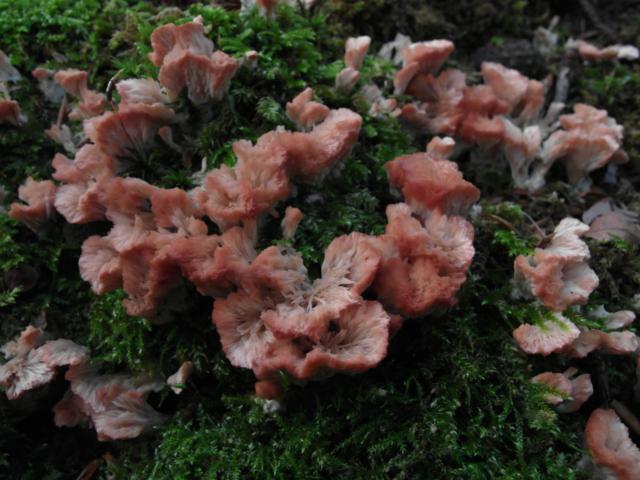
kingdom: Fungi
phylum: Basidiomycota
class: Agaricomycetes
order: Hymenochaetales
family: Rickenellaceae
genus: Cotylidia
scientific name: Cotylidia pannosa
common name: vifte-navlesvamp
